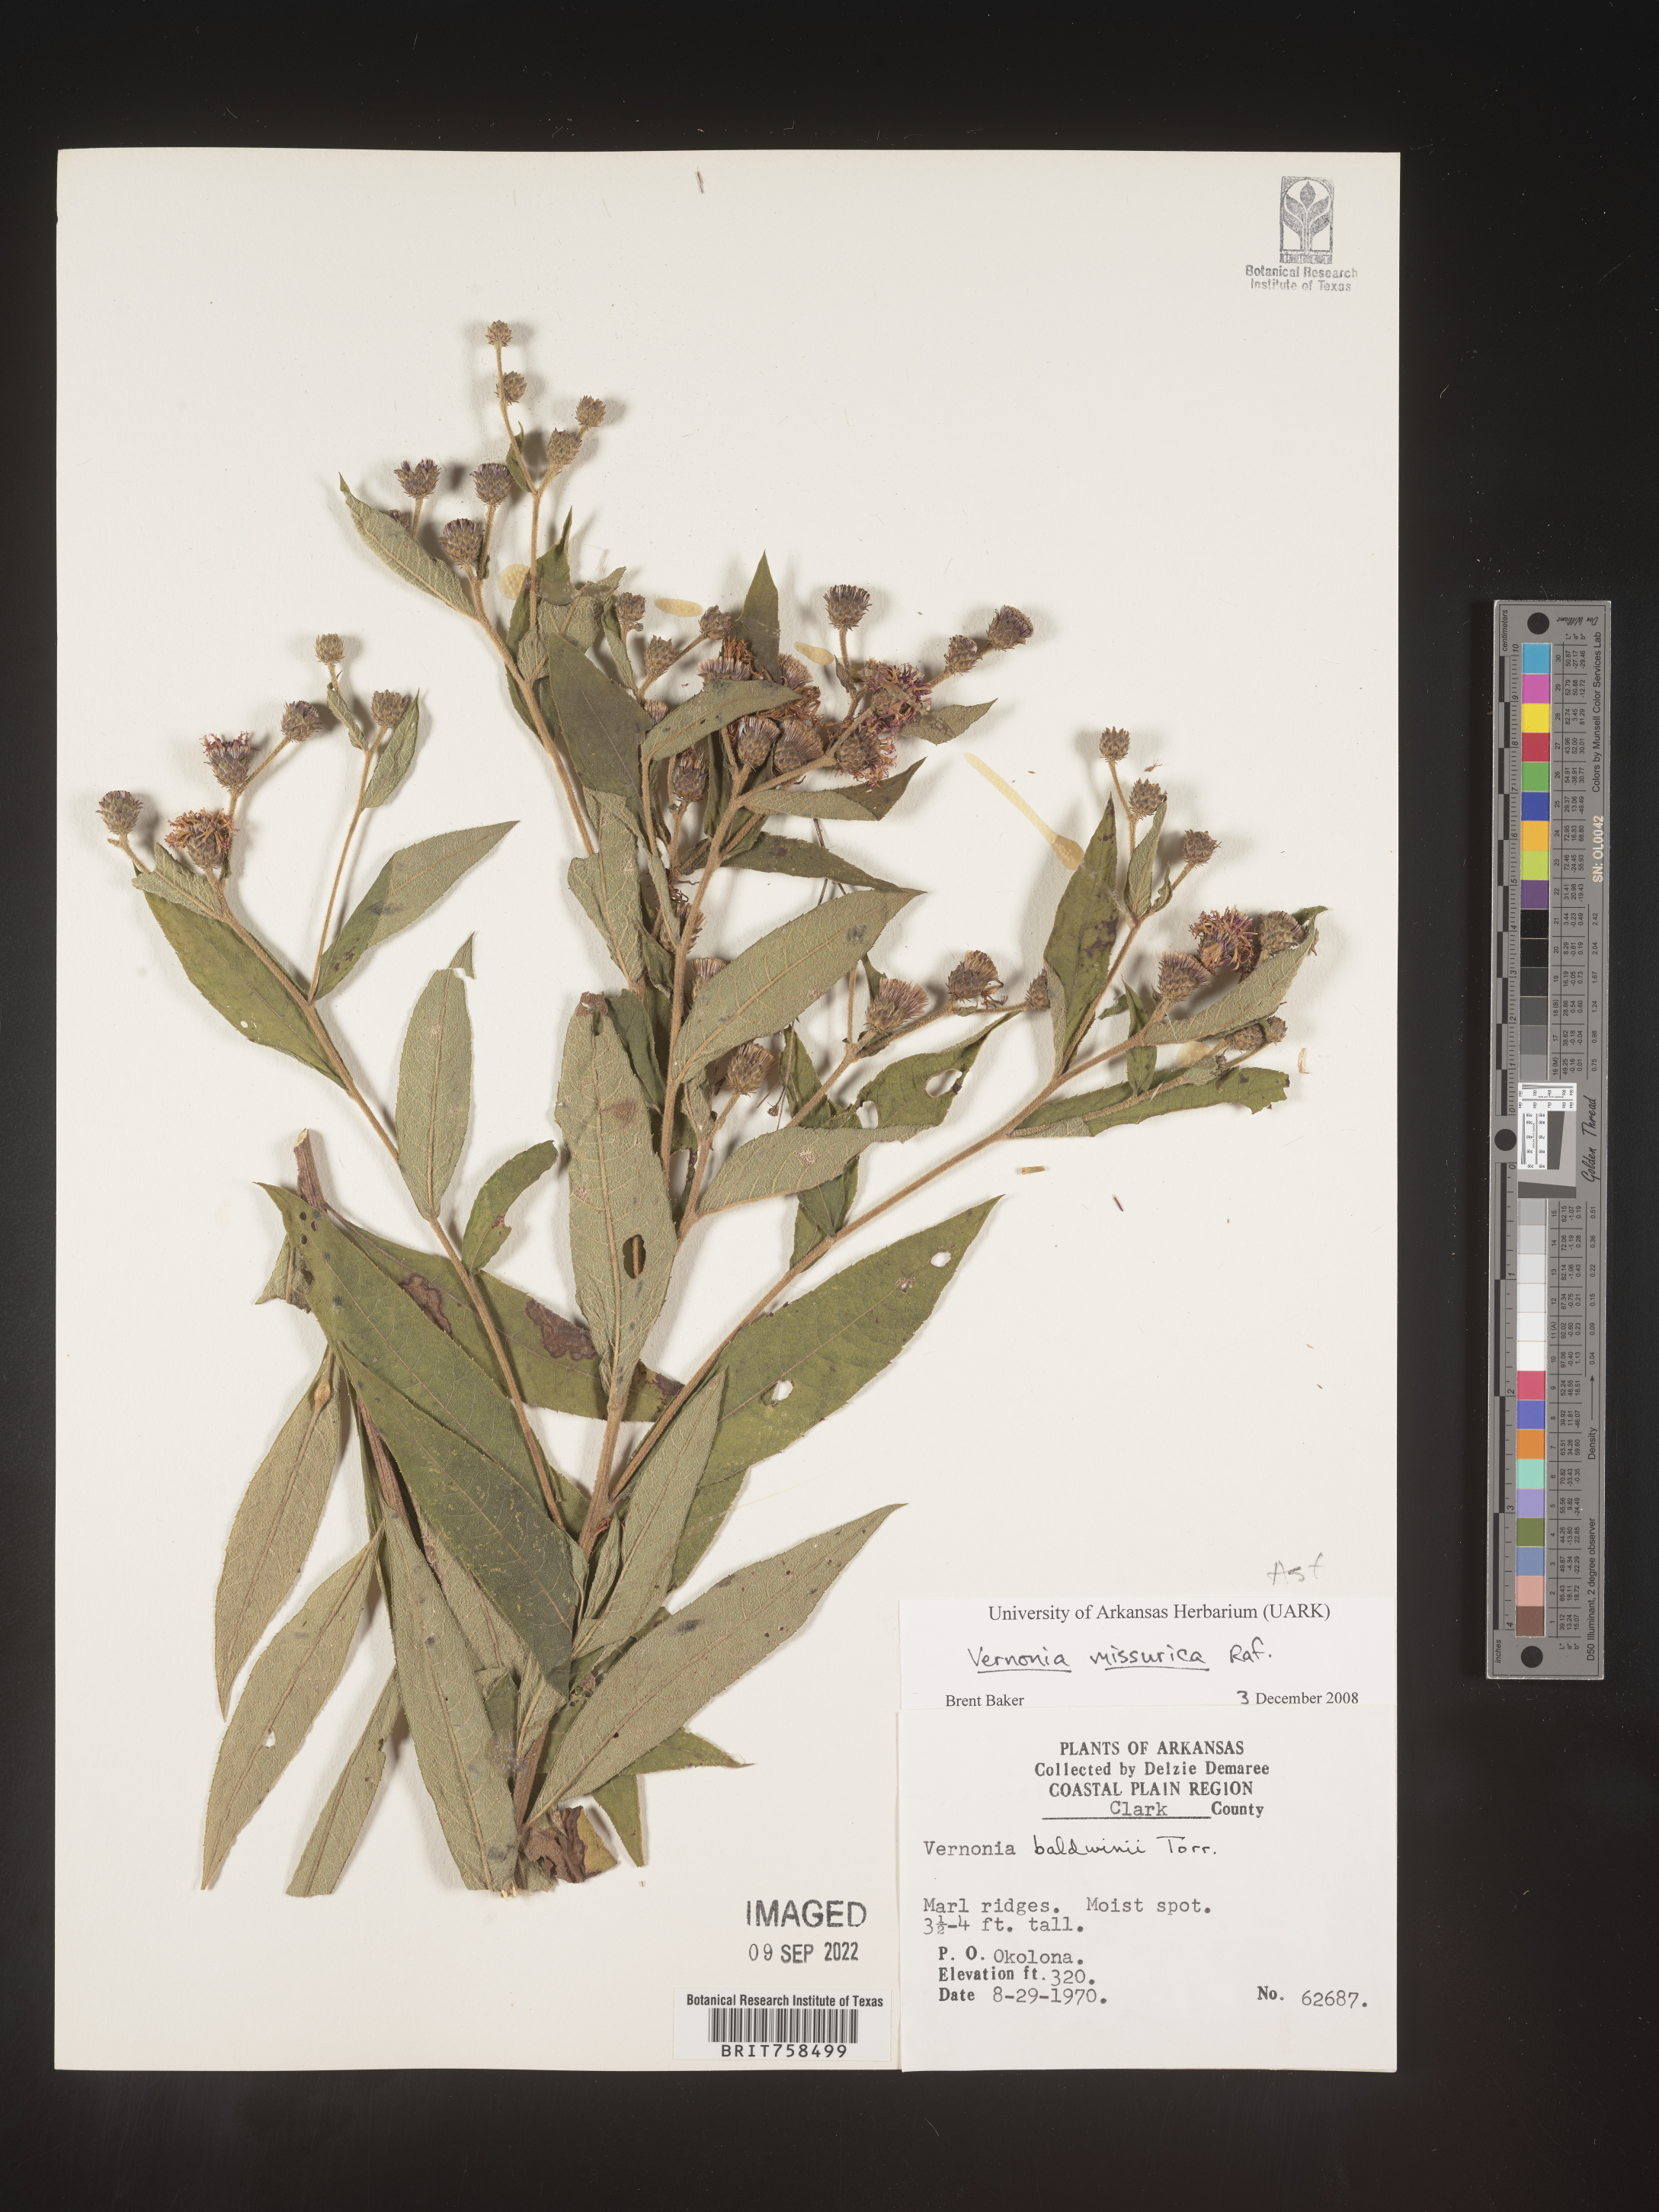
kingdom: Plantae
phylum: Tracheophyta
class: Magnoliopsida
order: Asterales
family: Asteraceae
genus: Vernonia
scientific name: Vernonia missurica
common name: Missouri ironweed
